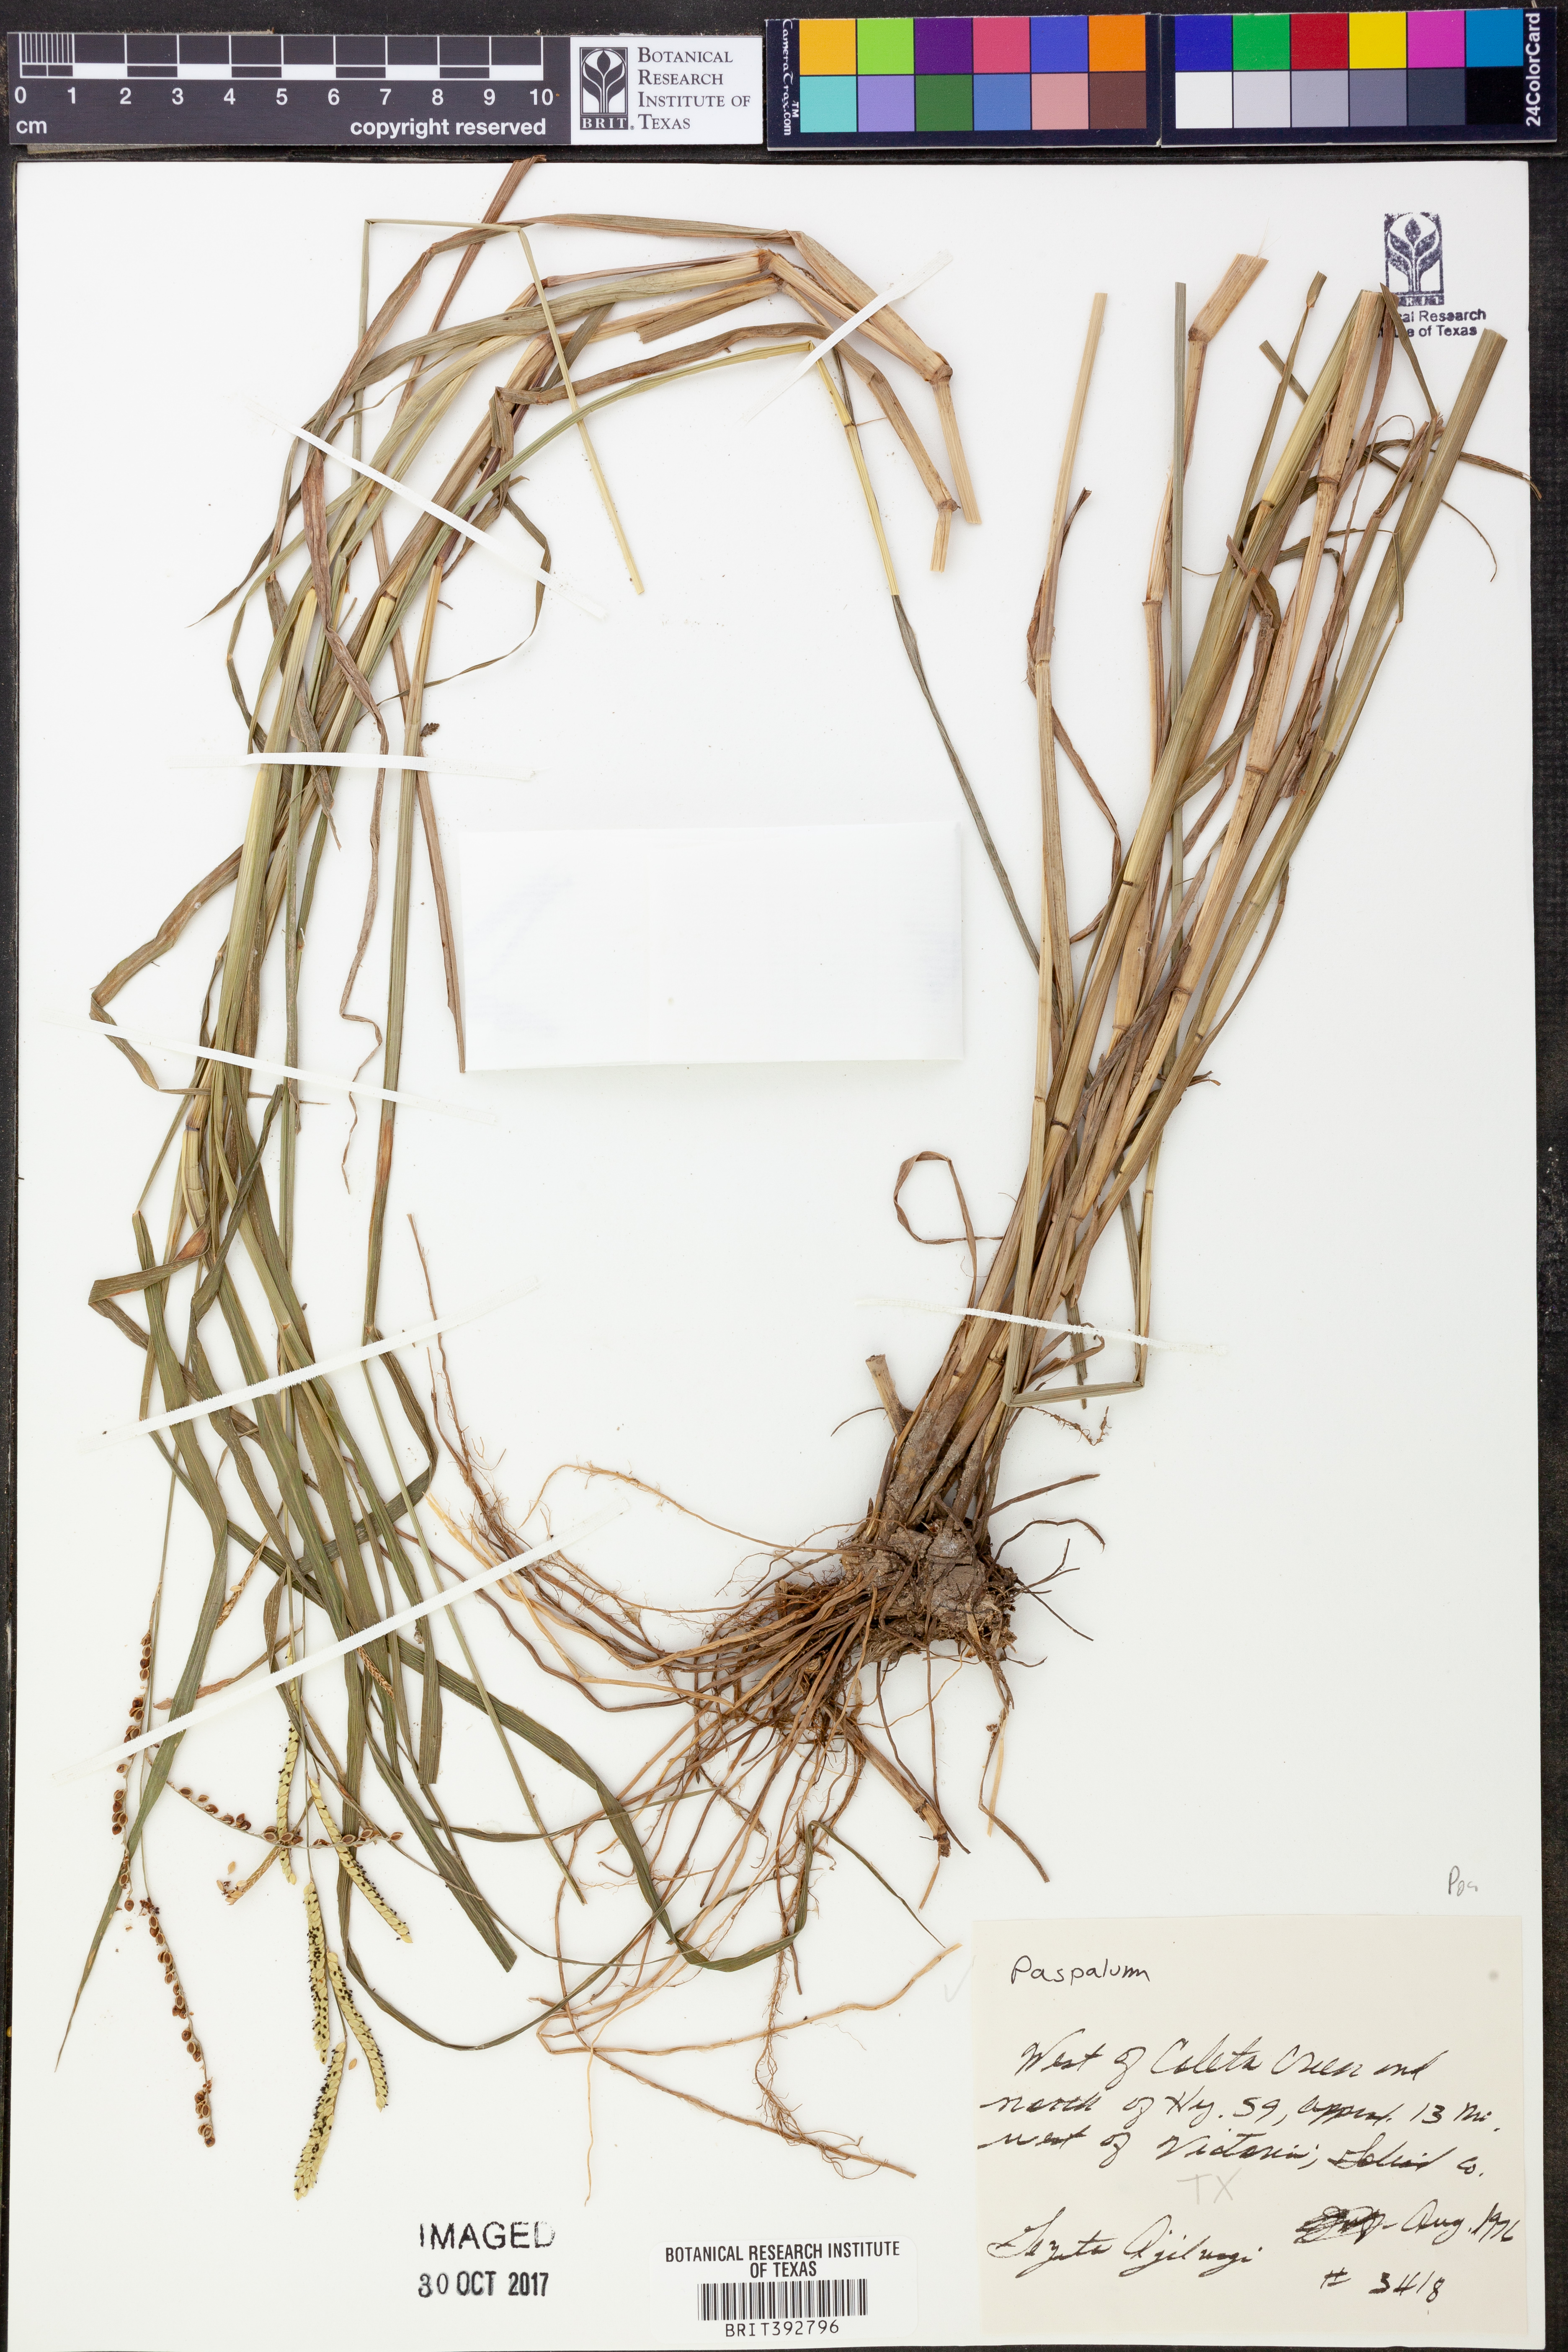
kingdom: Plantae
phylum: Tracheophyta
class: Liliopsida
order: Poales
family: Poaceae
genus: Paspalum
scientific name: Paspalum
